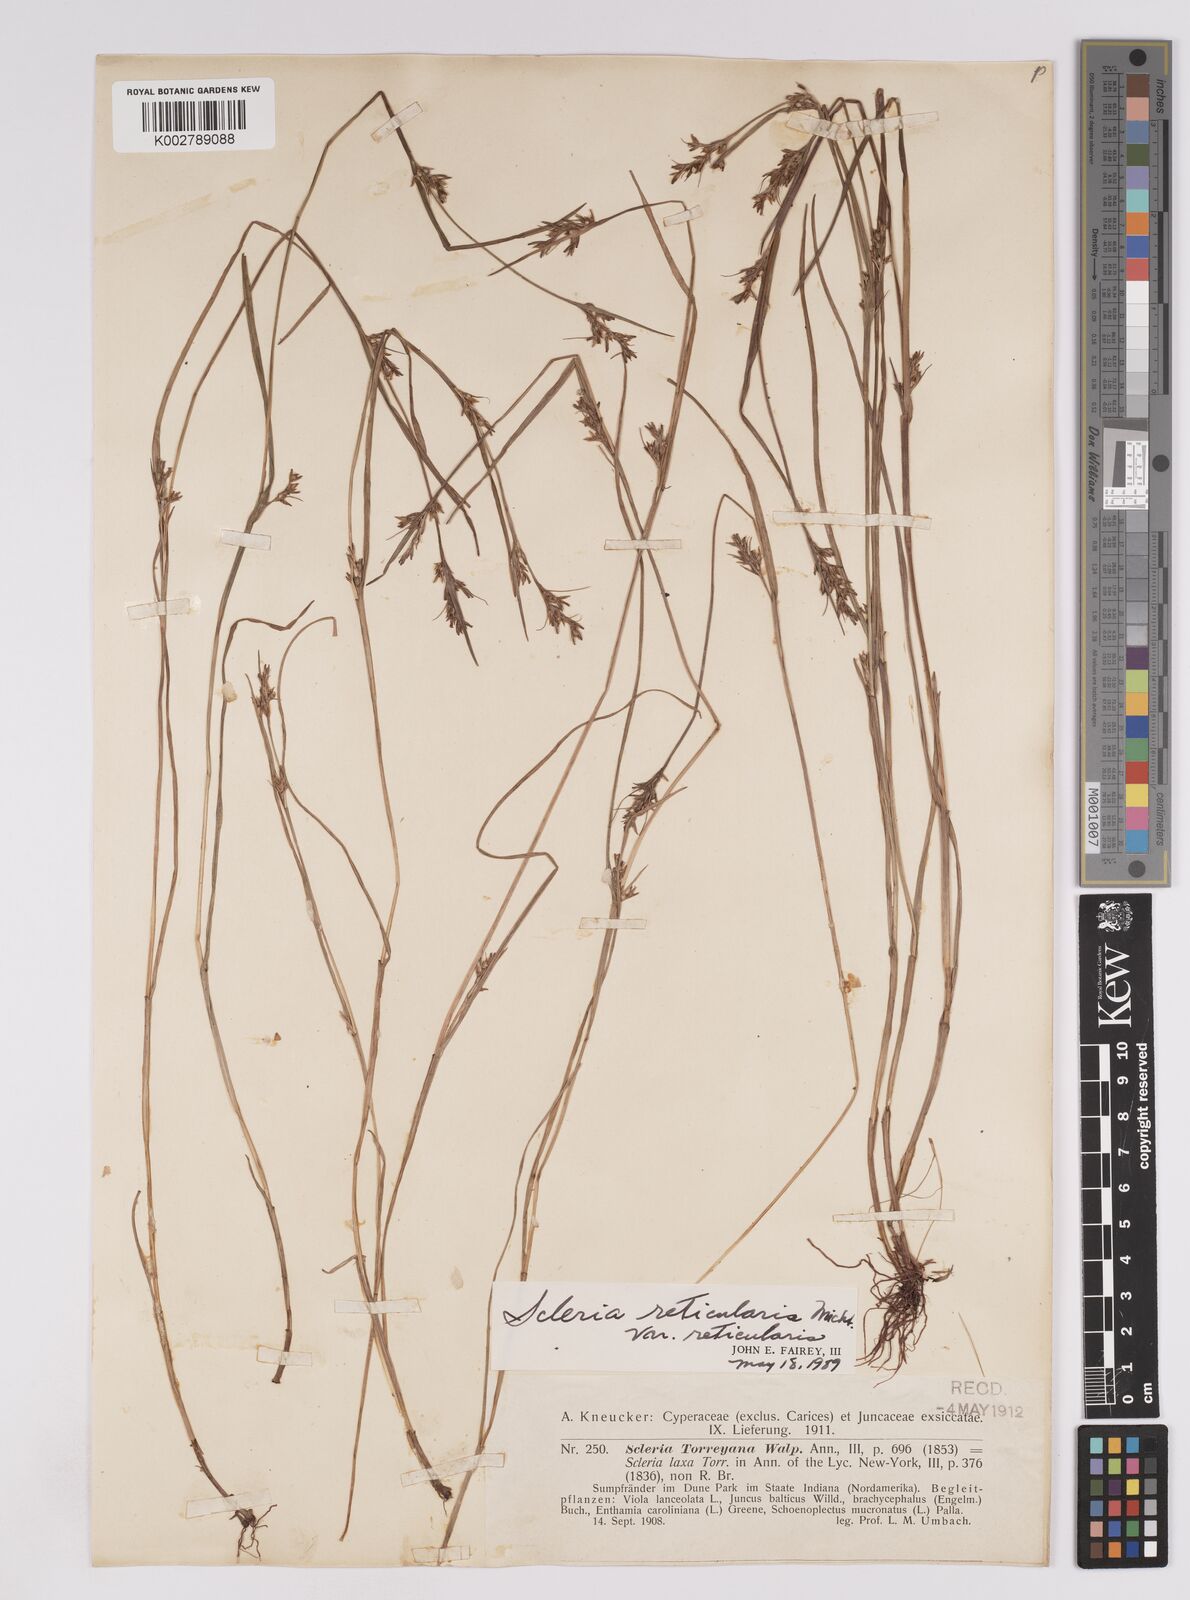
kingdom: Plantae
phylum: Tracheophyta
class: Liliopsida
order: Poales
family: Cyperaceae
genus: Scleria
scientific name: Scleria reticularis
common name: Netted nutrush
